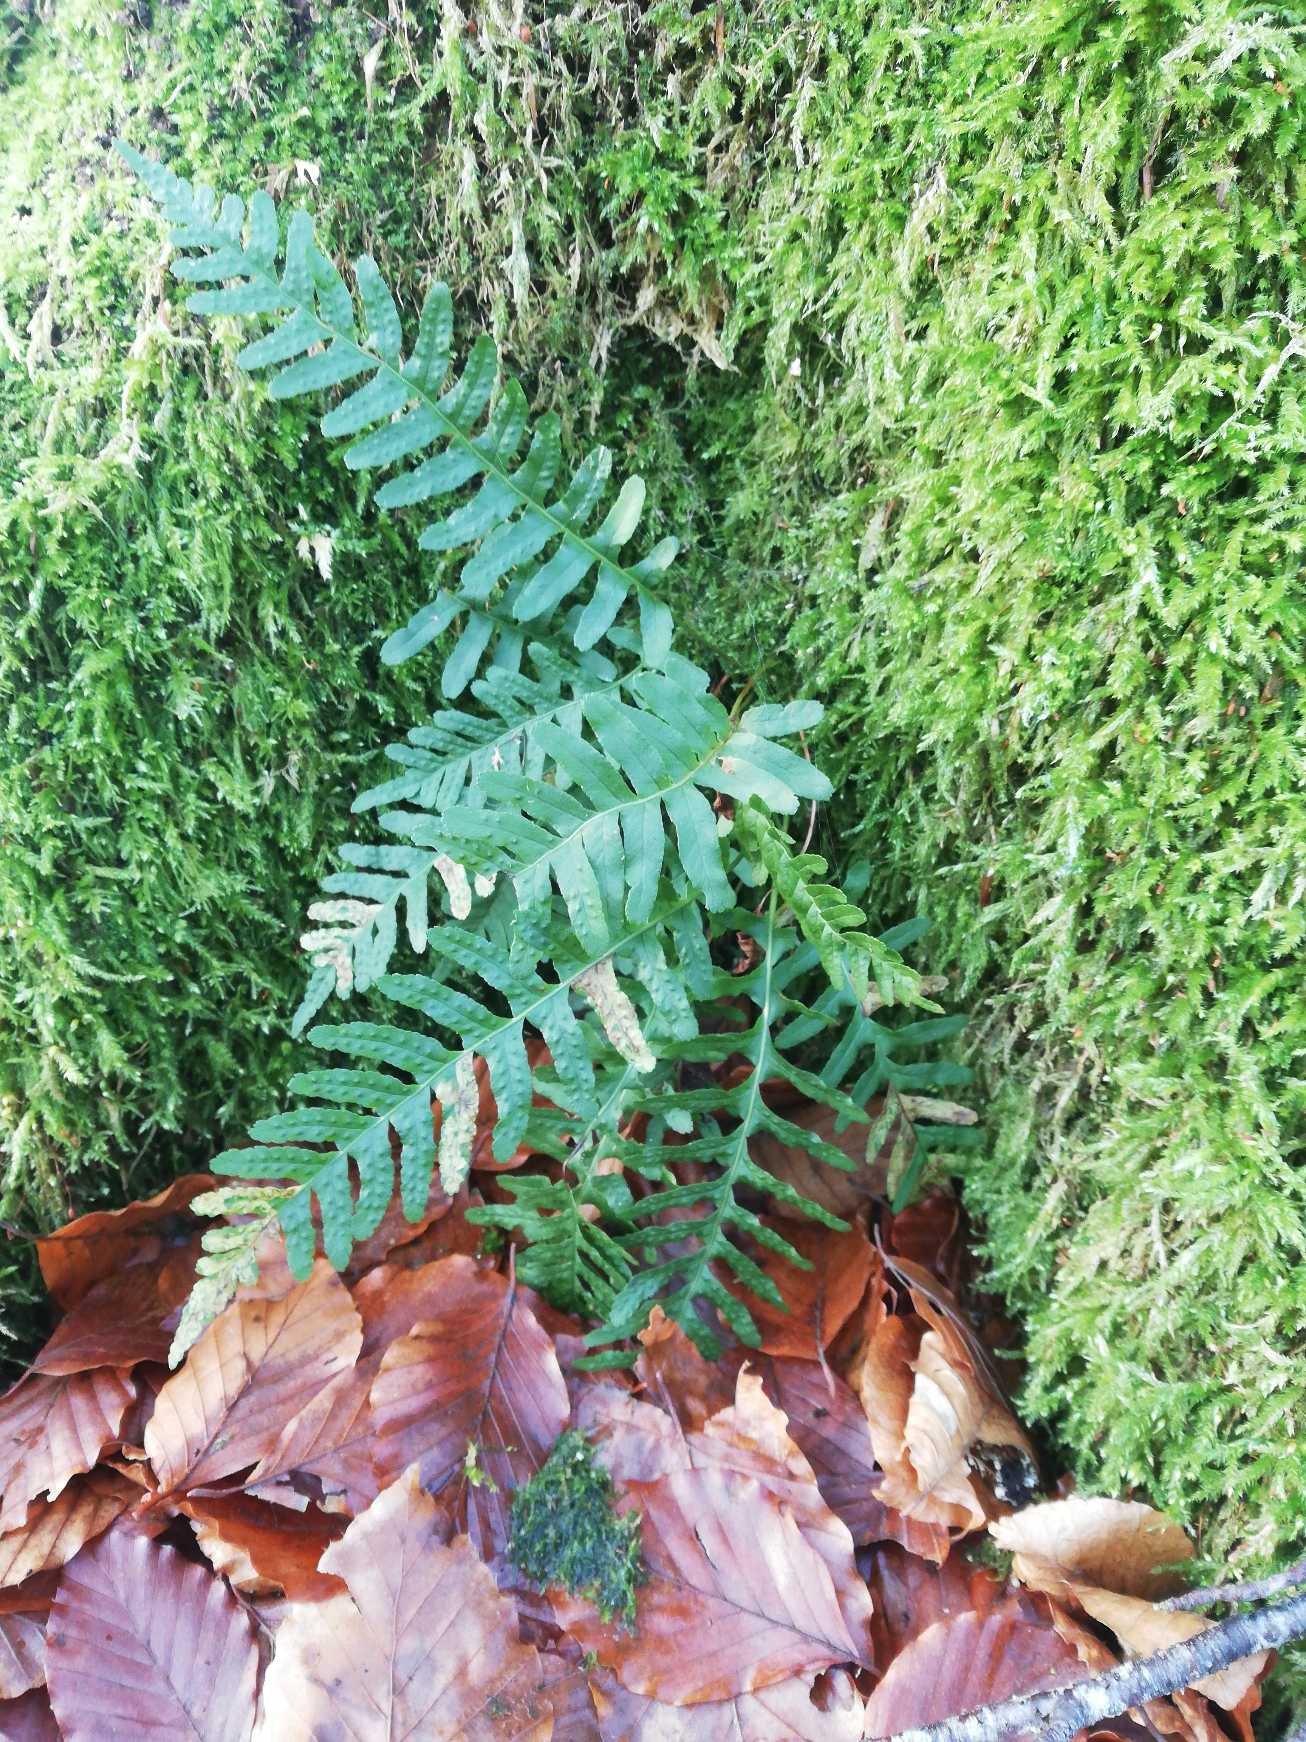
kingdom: Plantae
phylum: Tracheophyta
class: Polypodiopsida
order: Polypodiales
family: Polypodiaceae
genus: Polypodium
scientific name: Polypodium vulgare
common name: Almindelig engelsød
